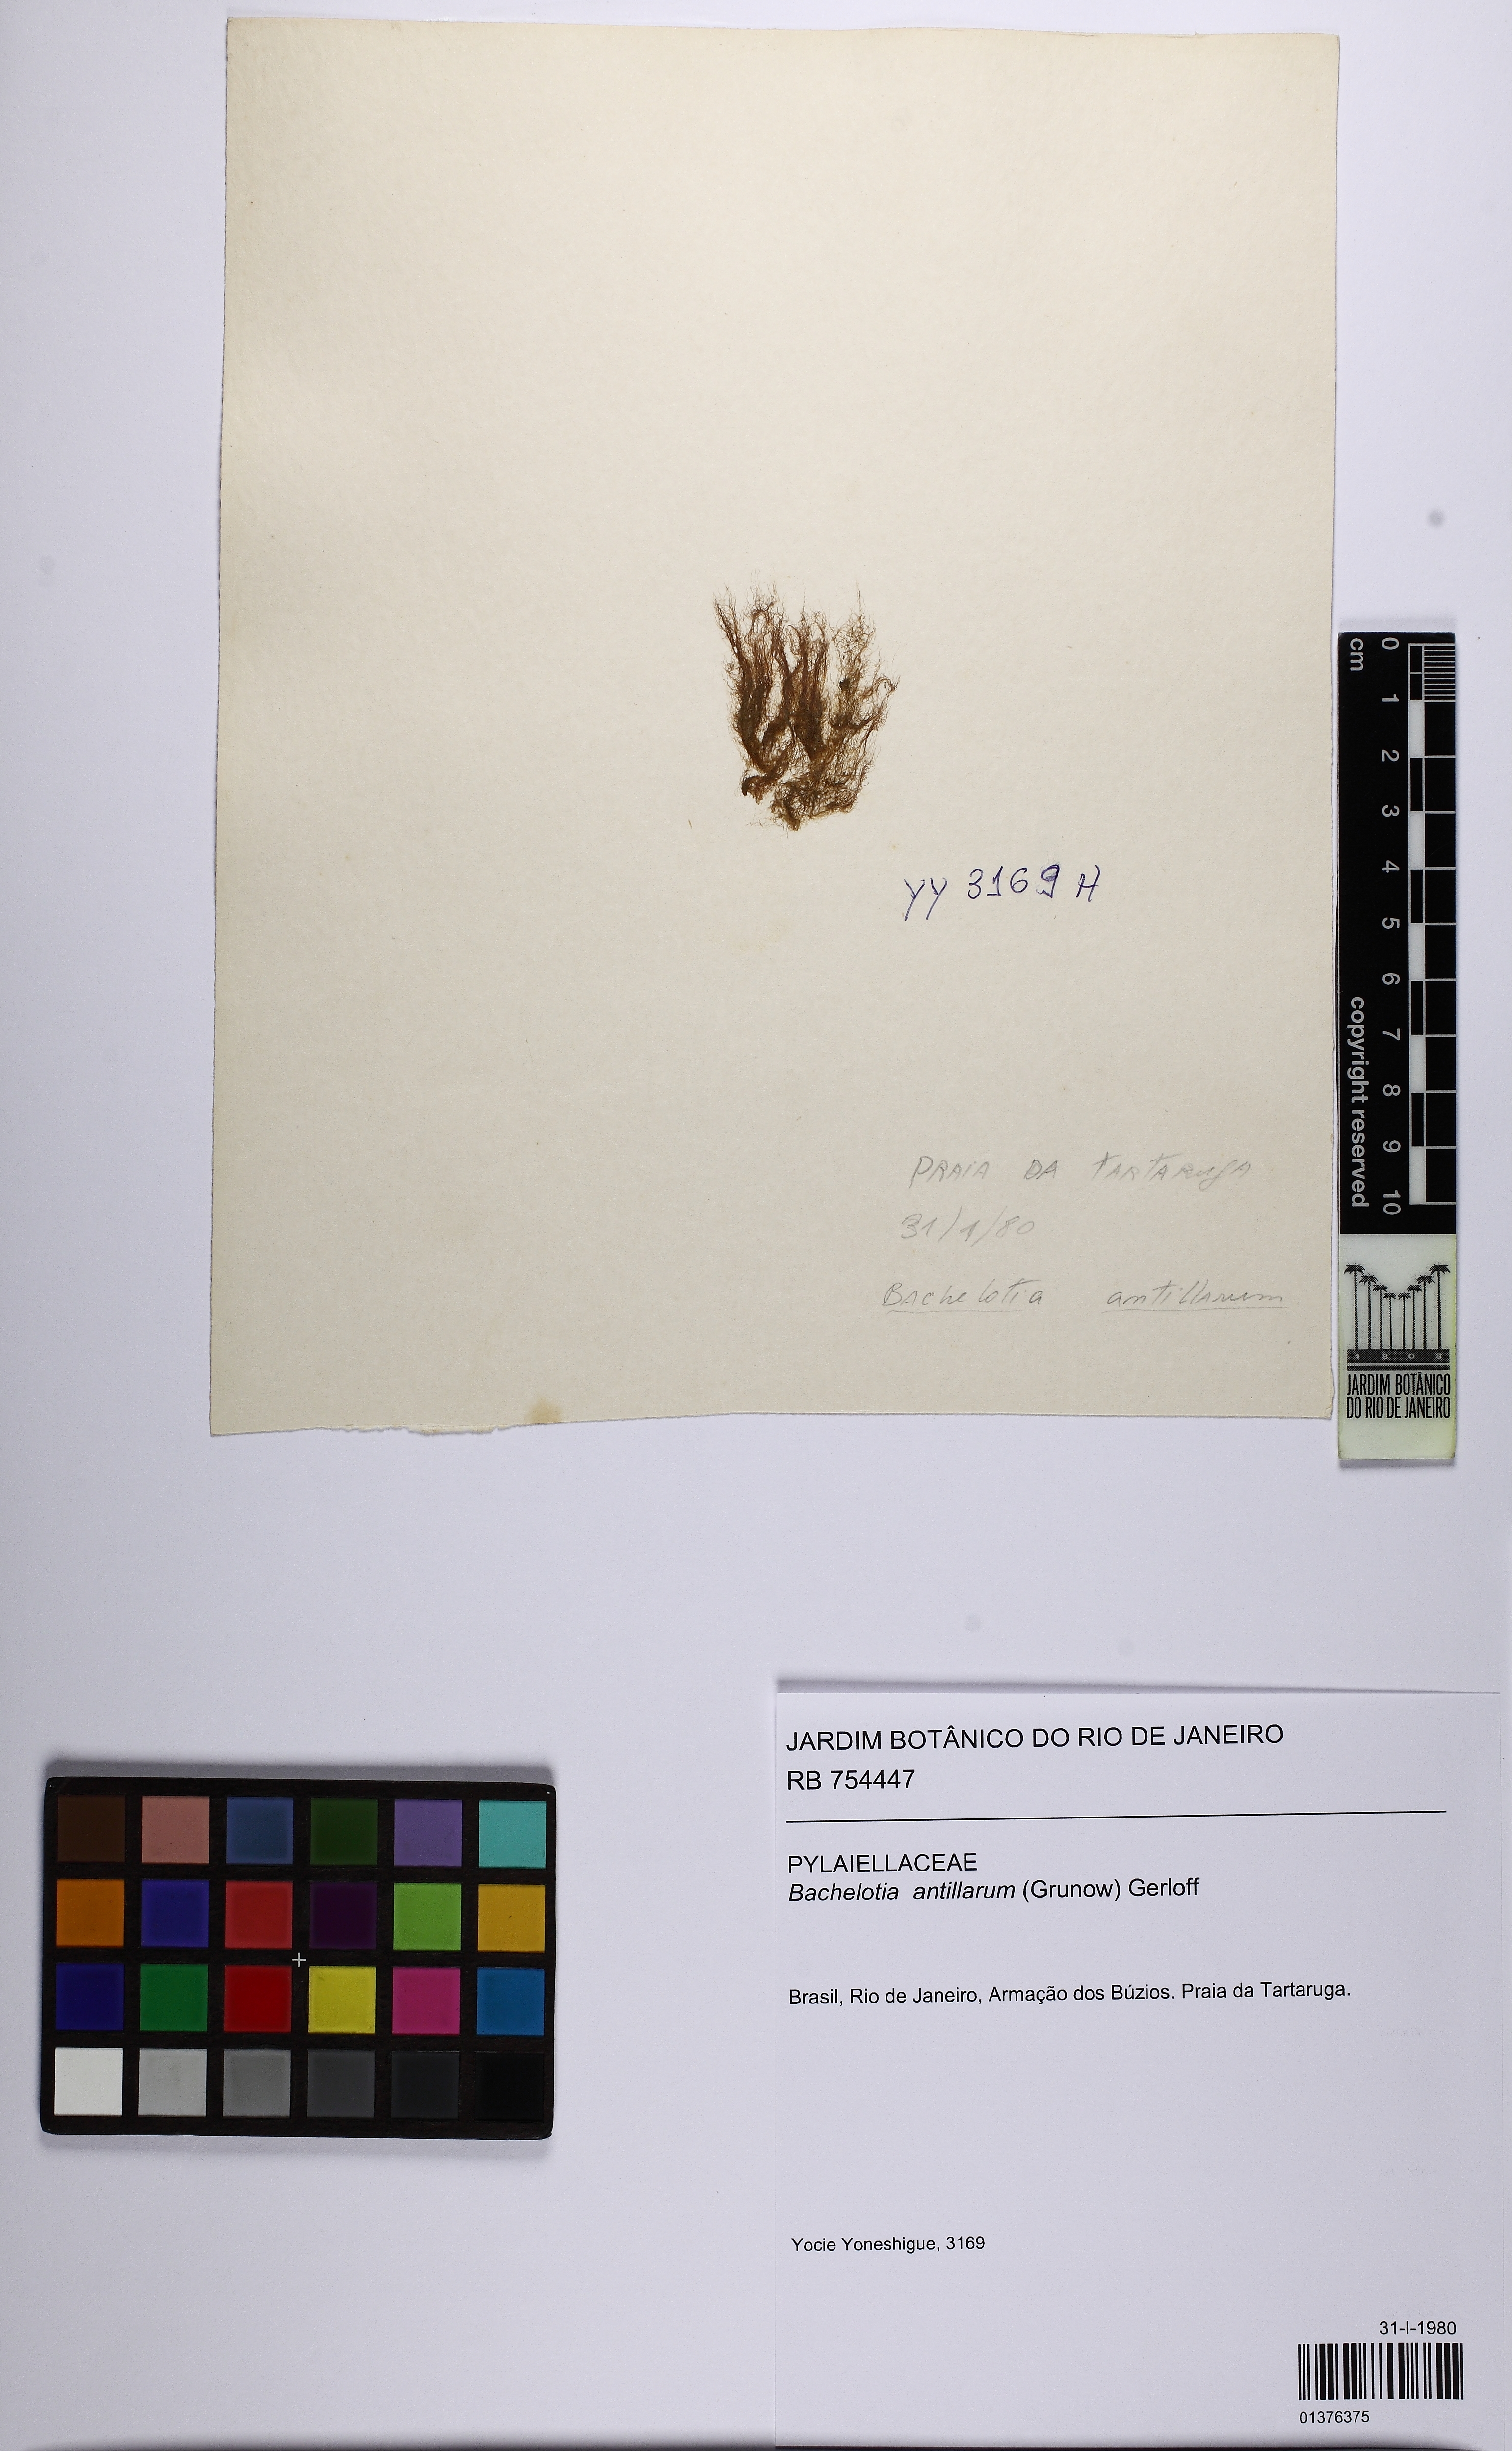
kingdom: Chromista
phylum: Ochrophyta
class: Phaeophyceae
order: Scytothamnales
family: Bachelotiaceae
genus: Bachelotia
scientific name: Bachelotia antillarum
